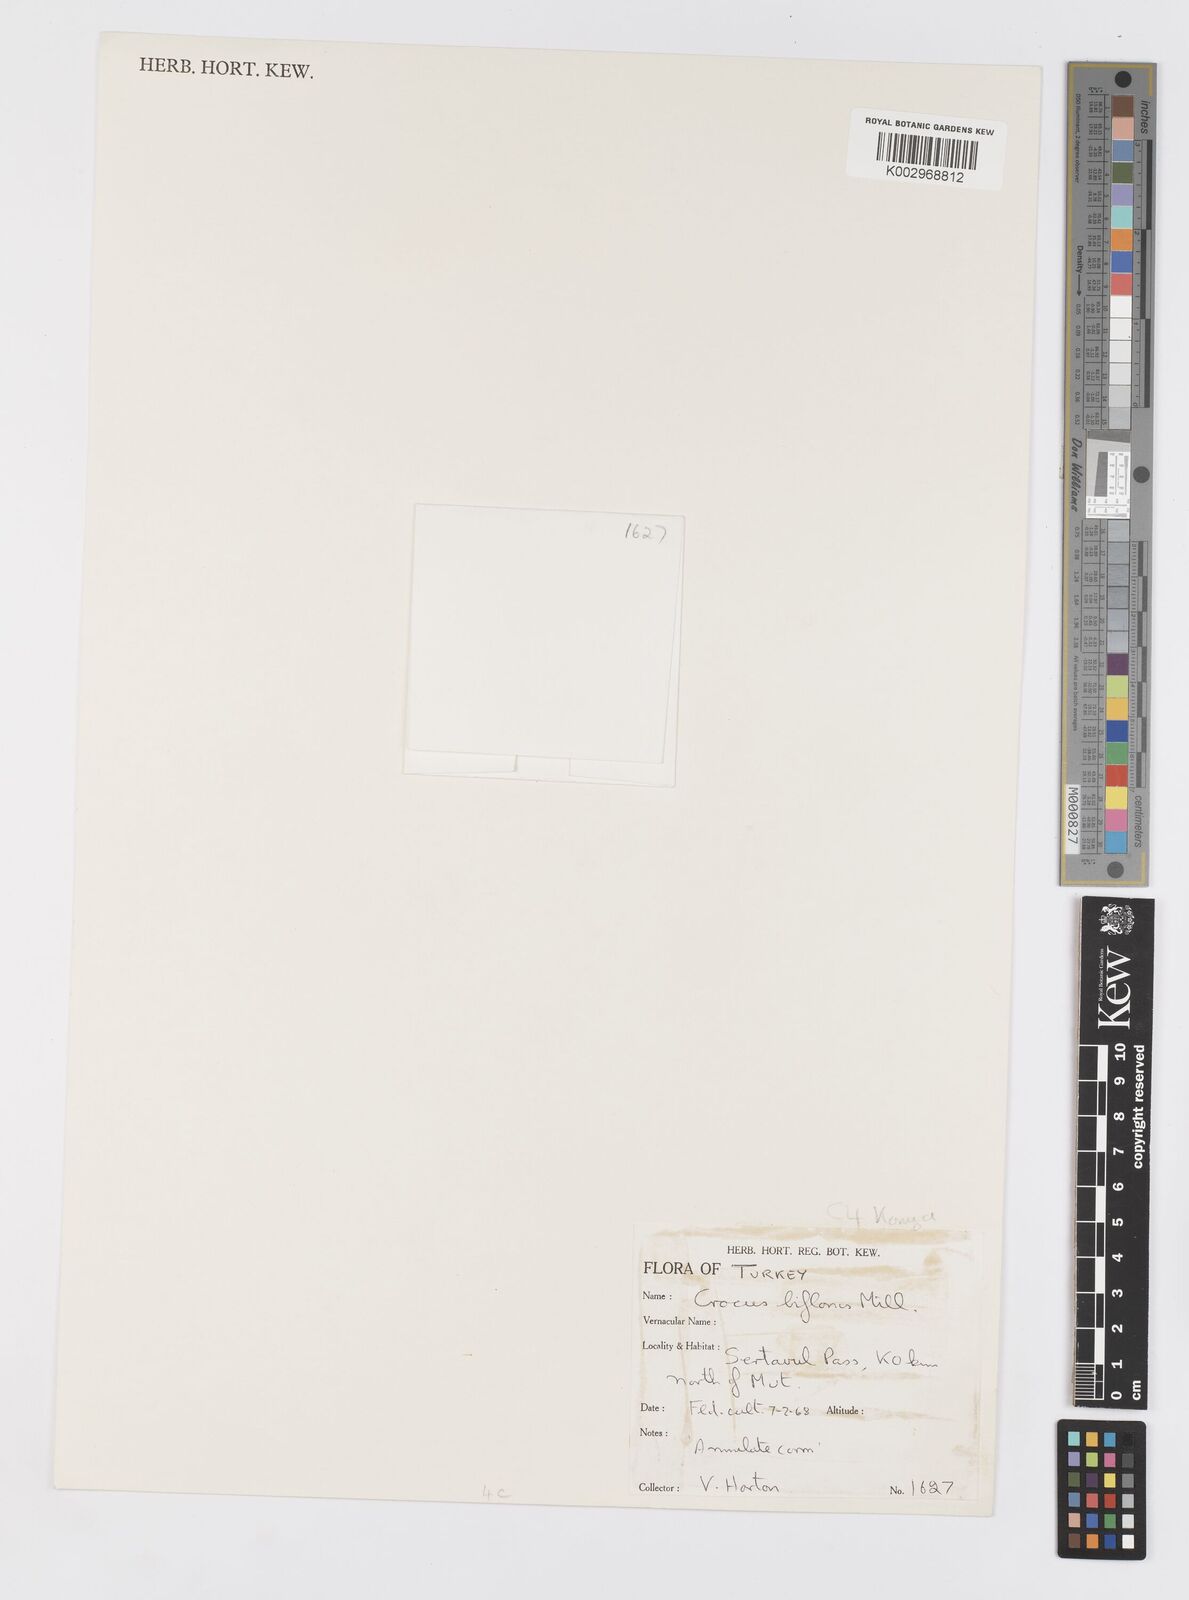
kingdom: Plantae
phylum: Tracheophyta
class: Liliopsida
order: Asparagales
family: Iridaceae
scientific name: Iridaceae
